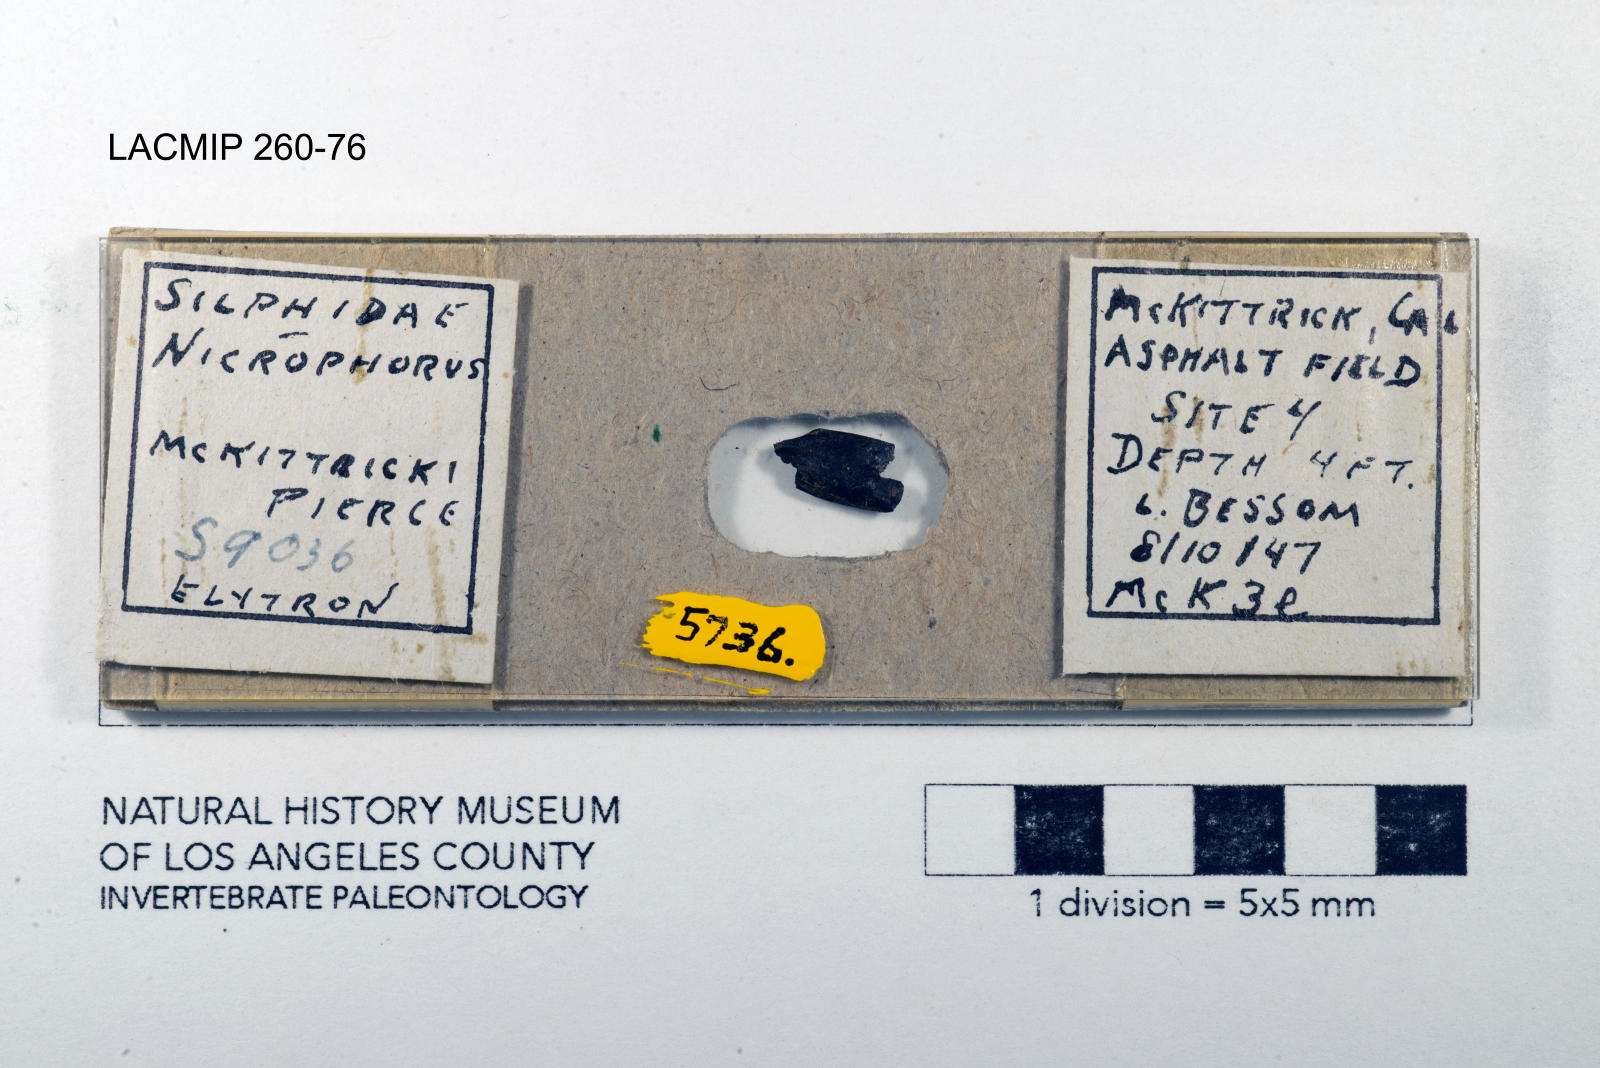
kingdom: Animalia
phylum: Arthropoda
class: Insecta
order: Coleoptera
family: Staphylinidae
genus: Nicrophorus
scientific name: Nicrophorus marginatus
